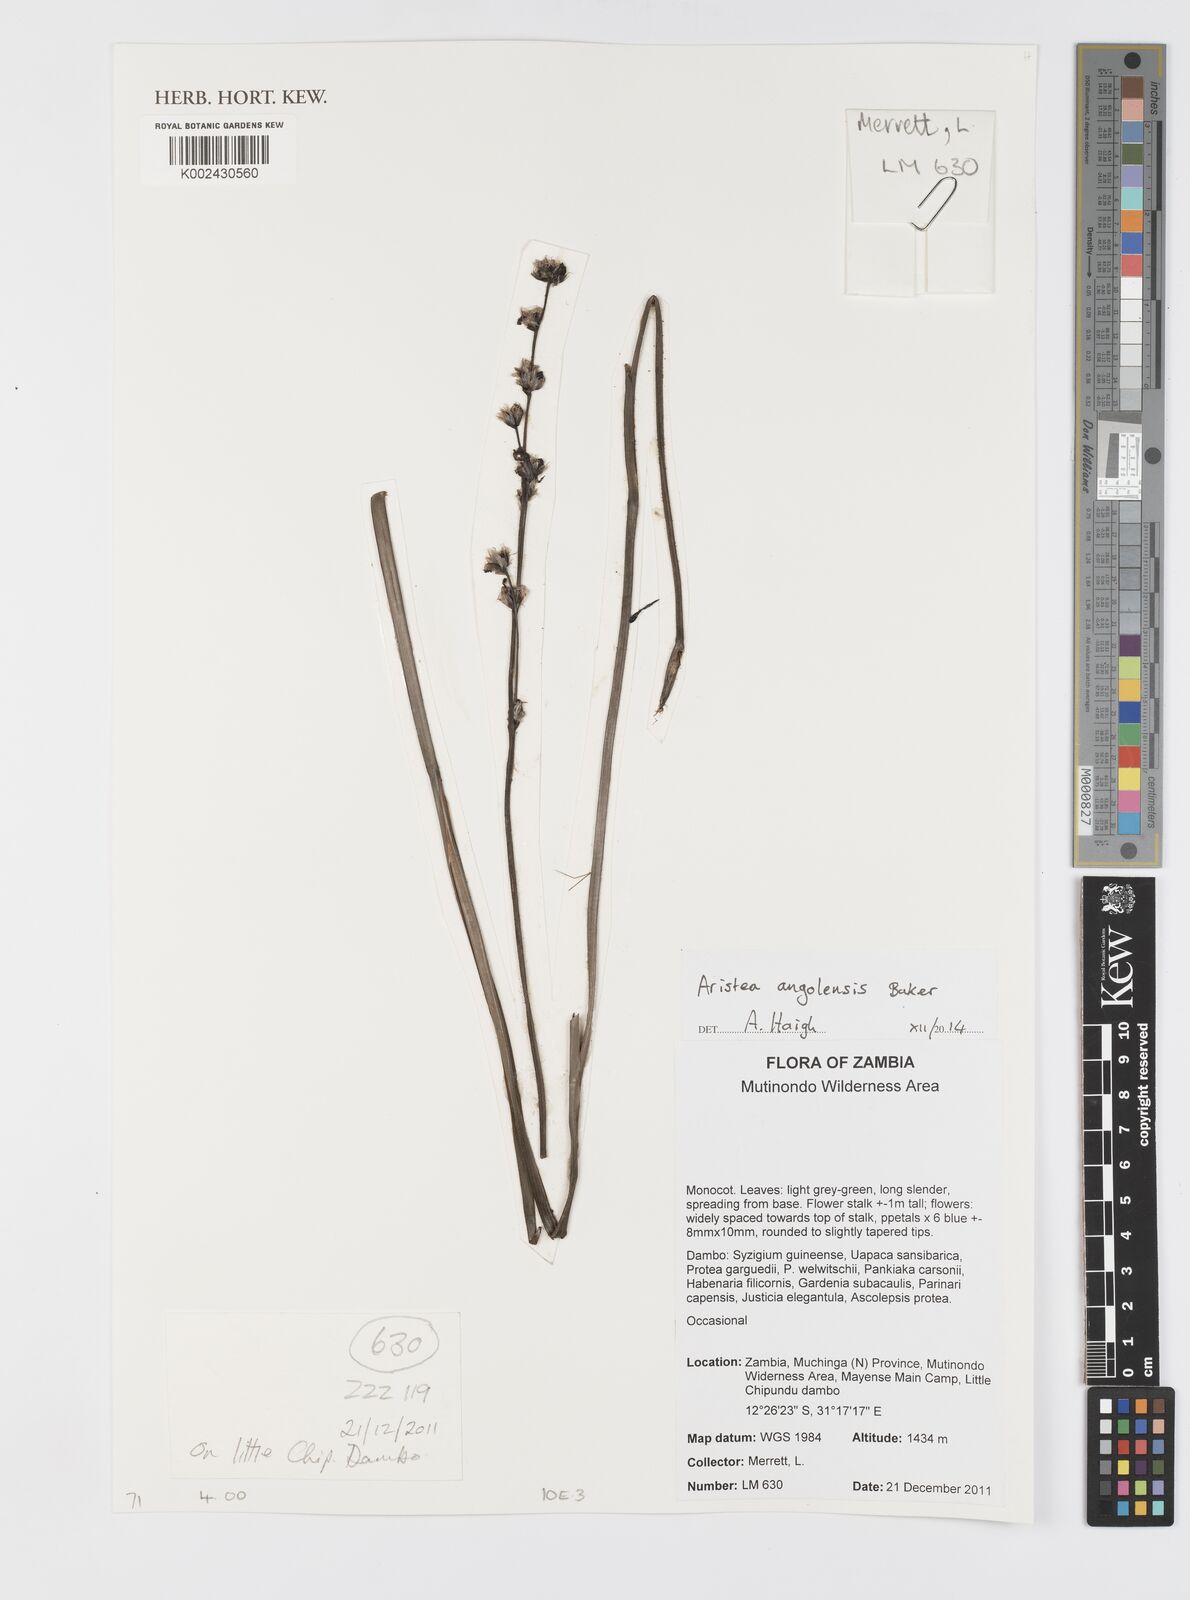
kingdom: Plantae
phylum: Tracheophyta
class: Liliopsida
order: Asparagales
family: Iridaceae
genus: Aristea
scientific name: Aristea angolensis
